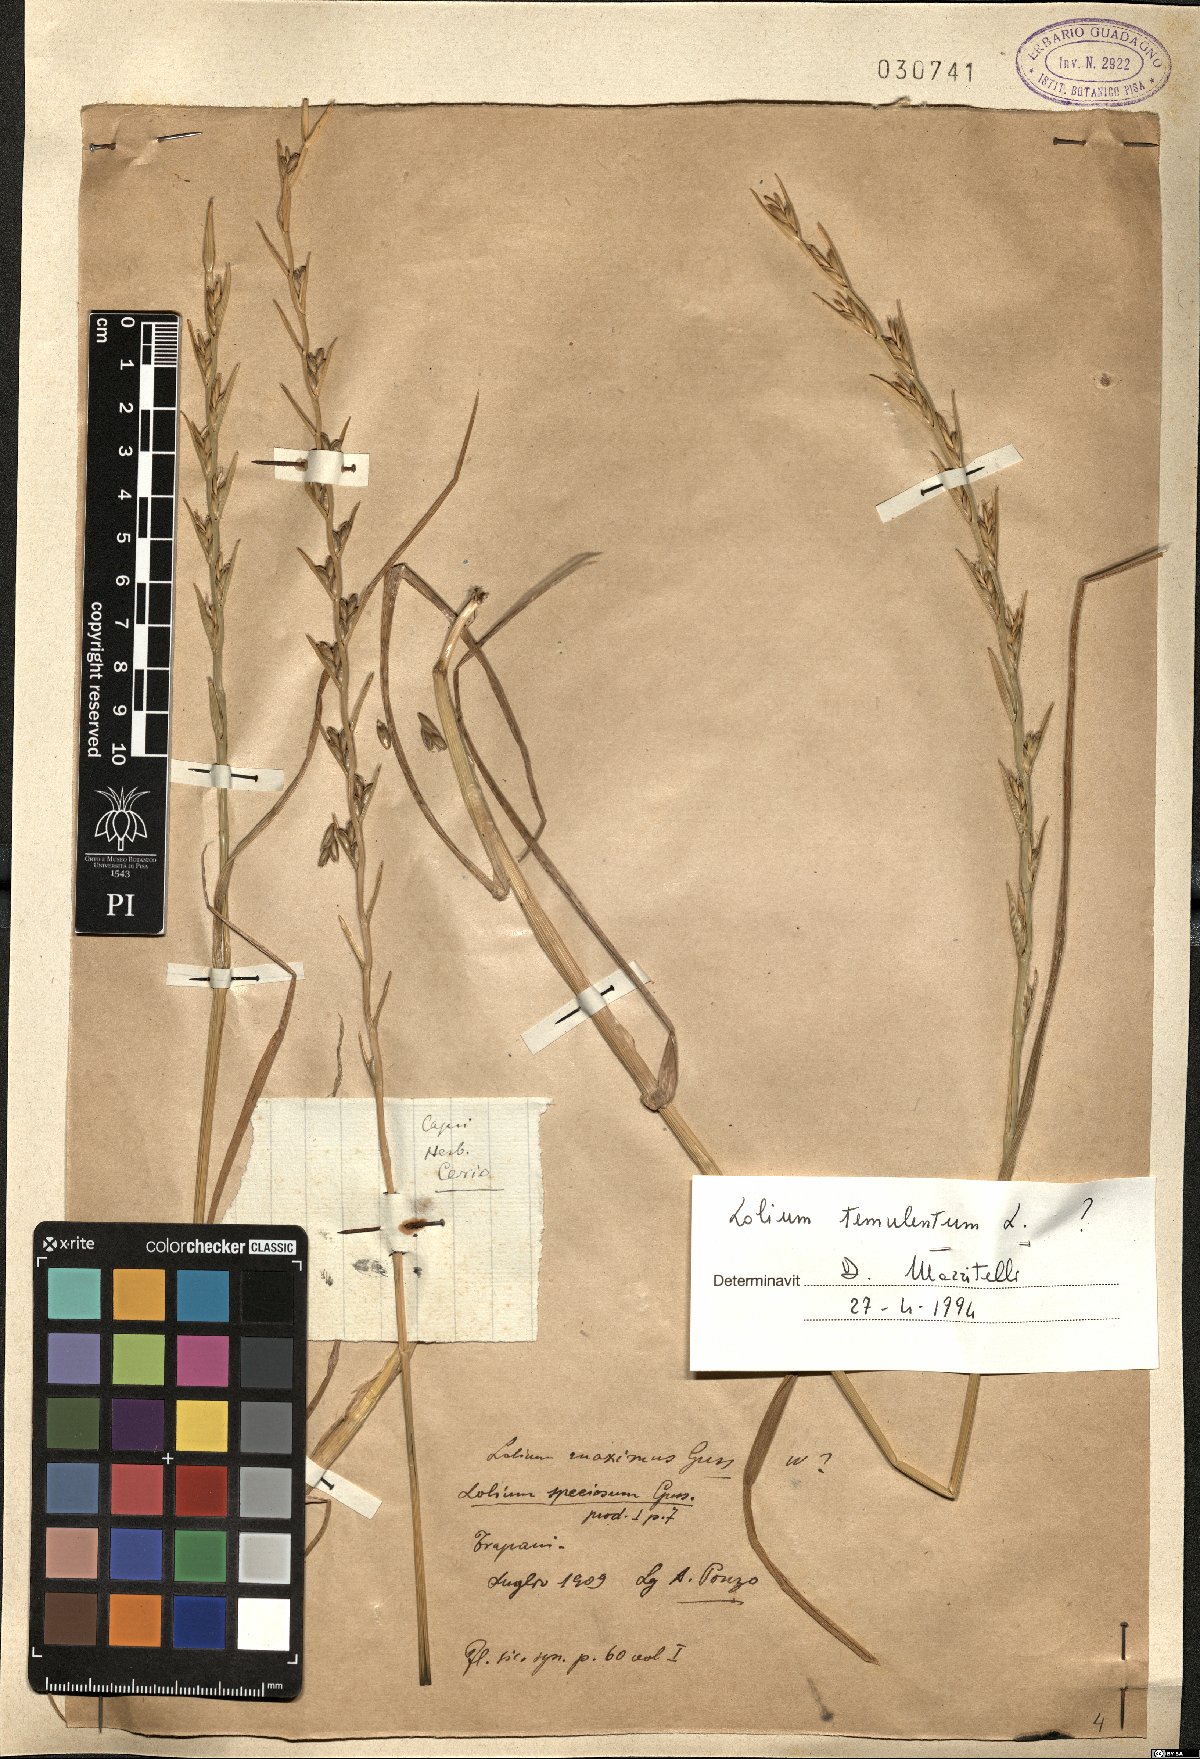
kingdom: Plantae
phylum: Tracheophyta
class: Liliopsida
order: Poales
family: Poaceae
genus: Lolium
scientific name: Lolium temulentum
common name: Darnel
